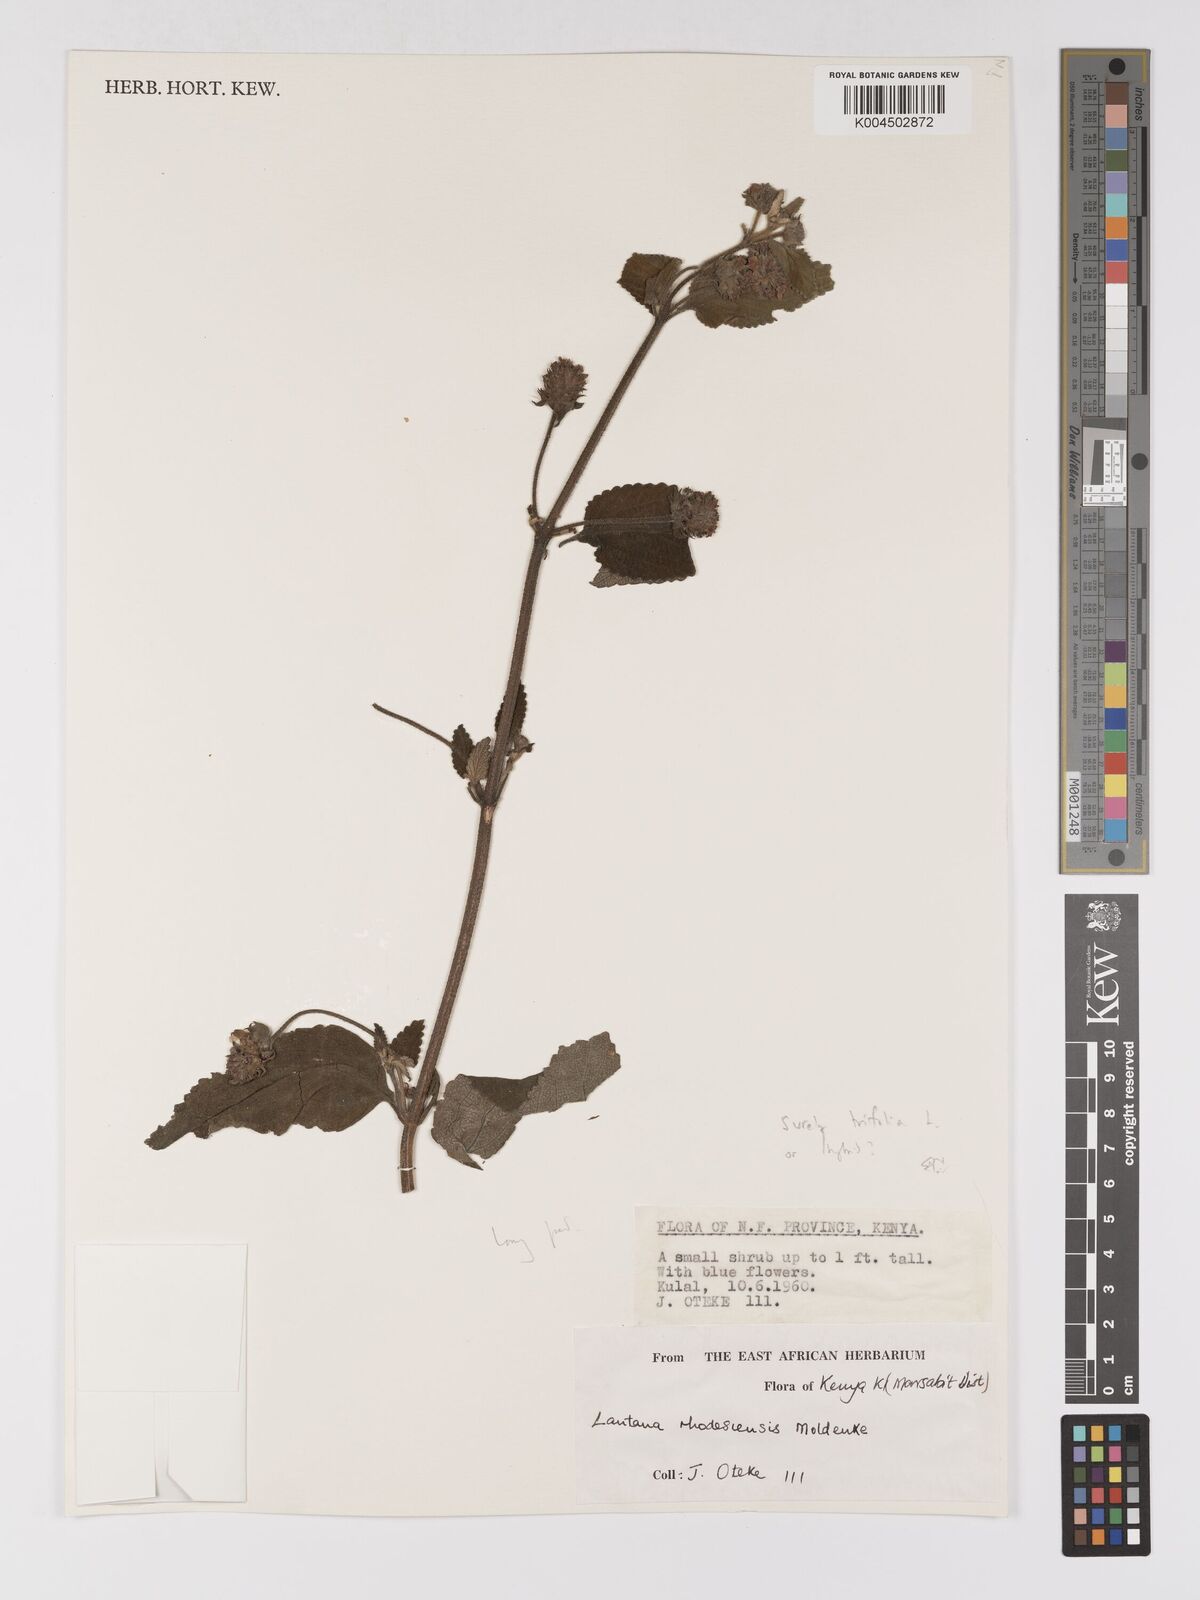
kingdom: Plantae
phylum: Tracheophyta
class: Magnoliopsida
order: Lamiales
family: Verbenaceae
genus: Lantana
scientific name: Lantana trifolia
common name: Sweet-sage
